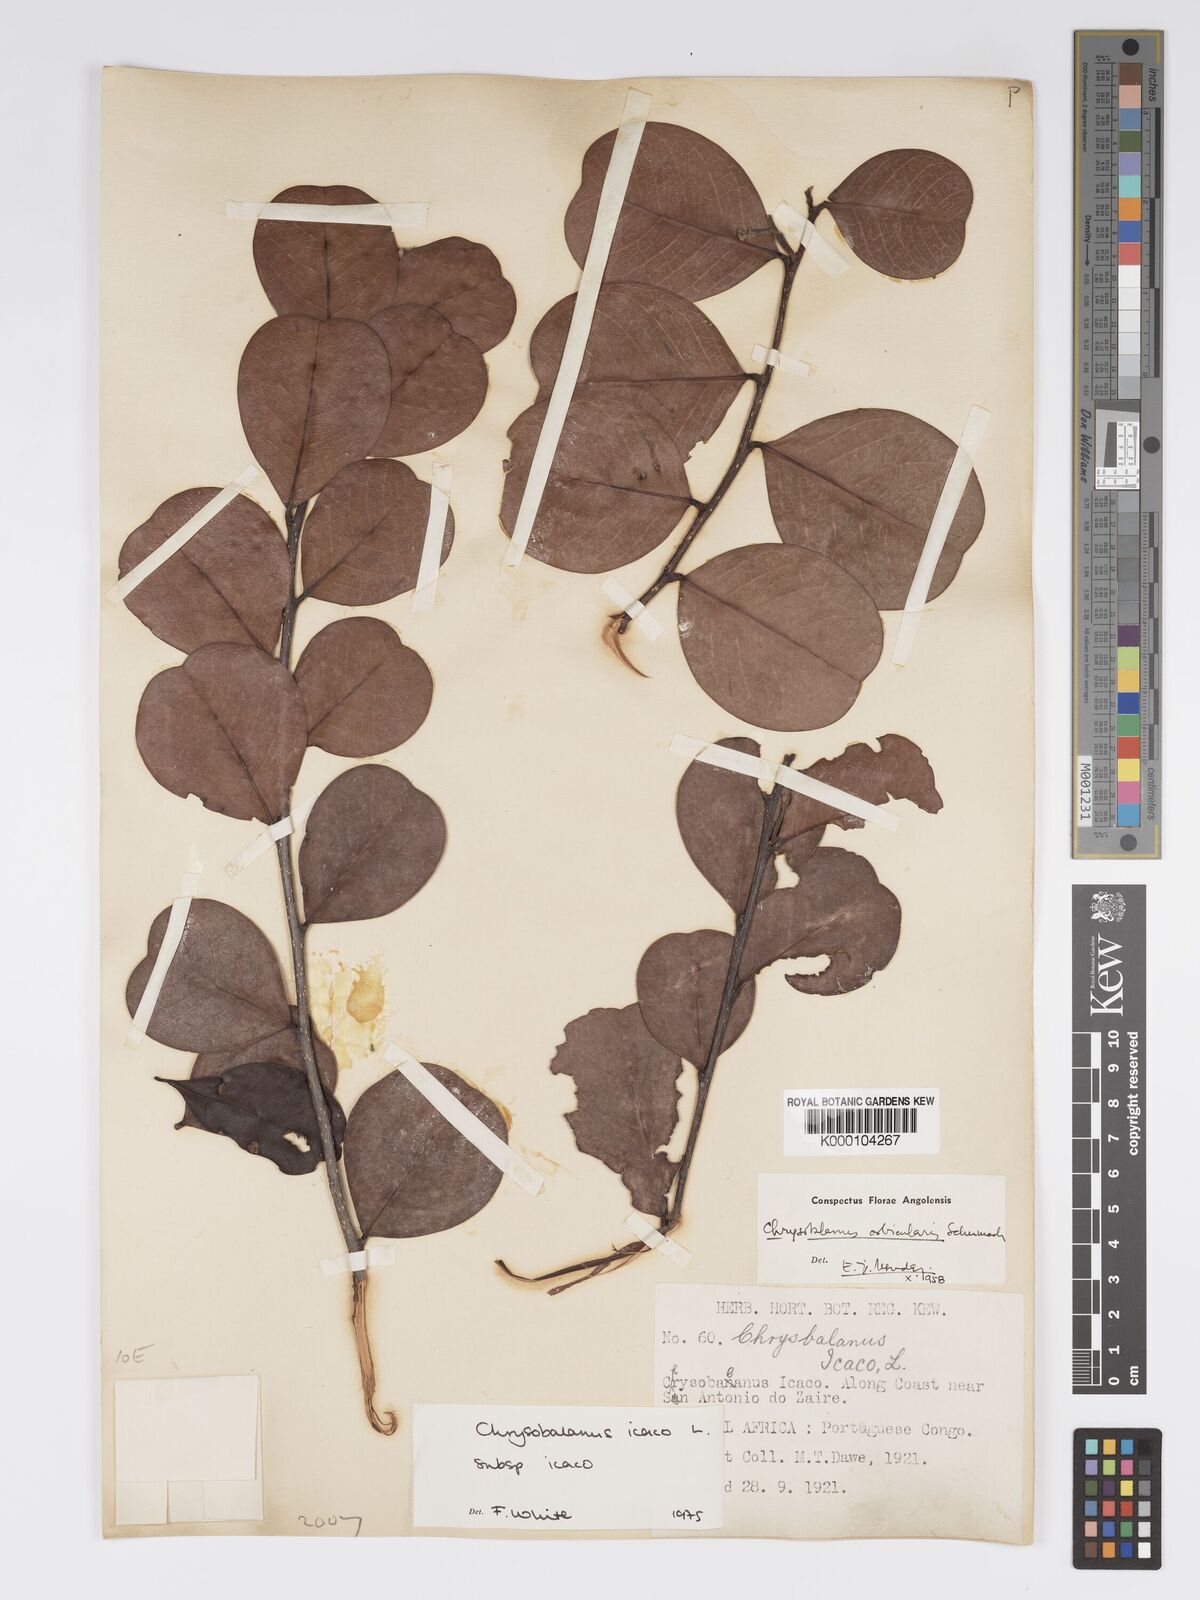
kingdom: Plantae
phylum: Tracheophyta
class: Magnoliopsida
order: Malpighiales
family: Chrysobalanaceae
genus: Chrysobalanus
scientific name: Chrysobalanus icaco
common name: Coco plum
